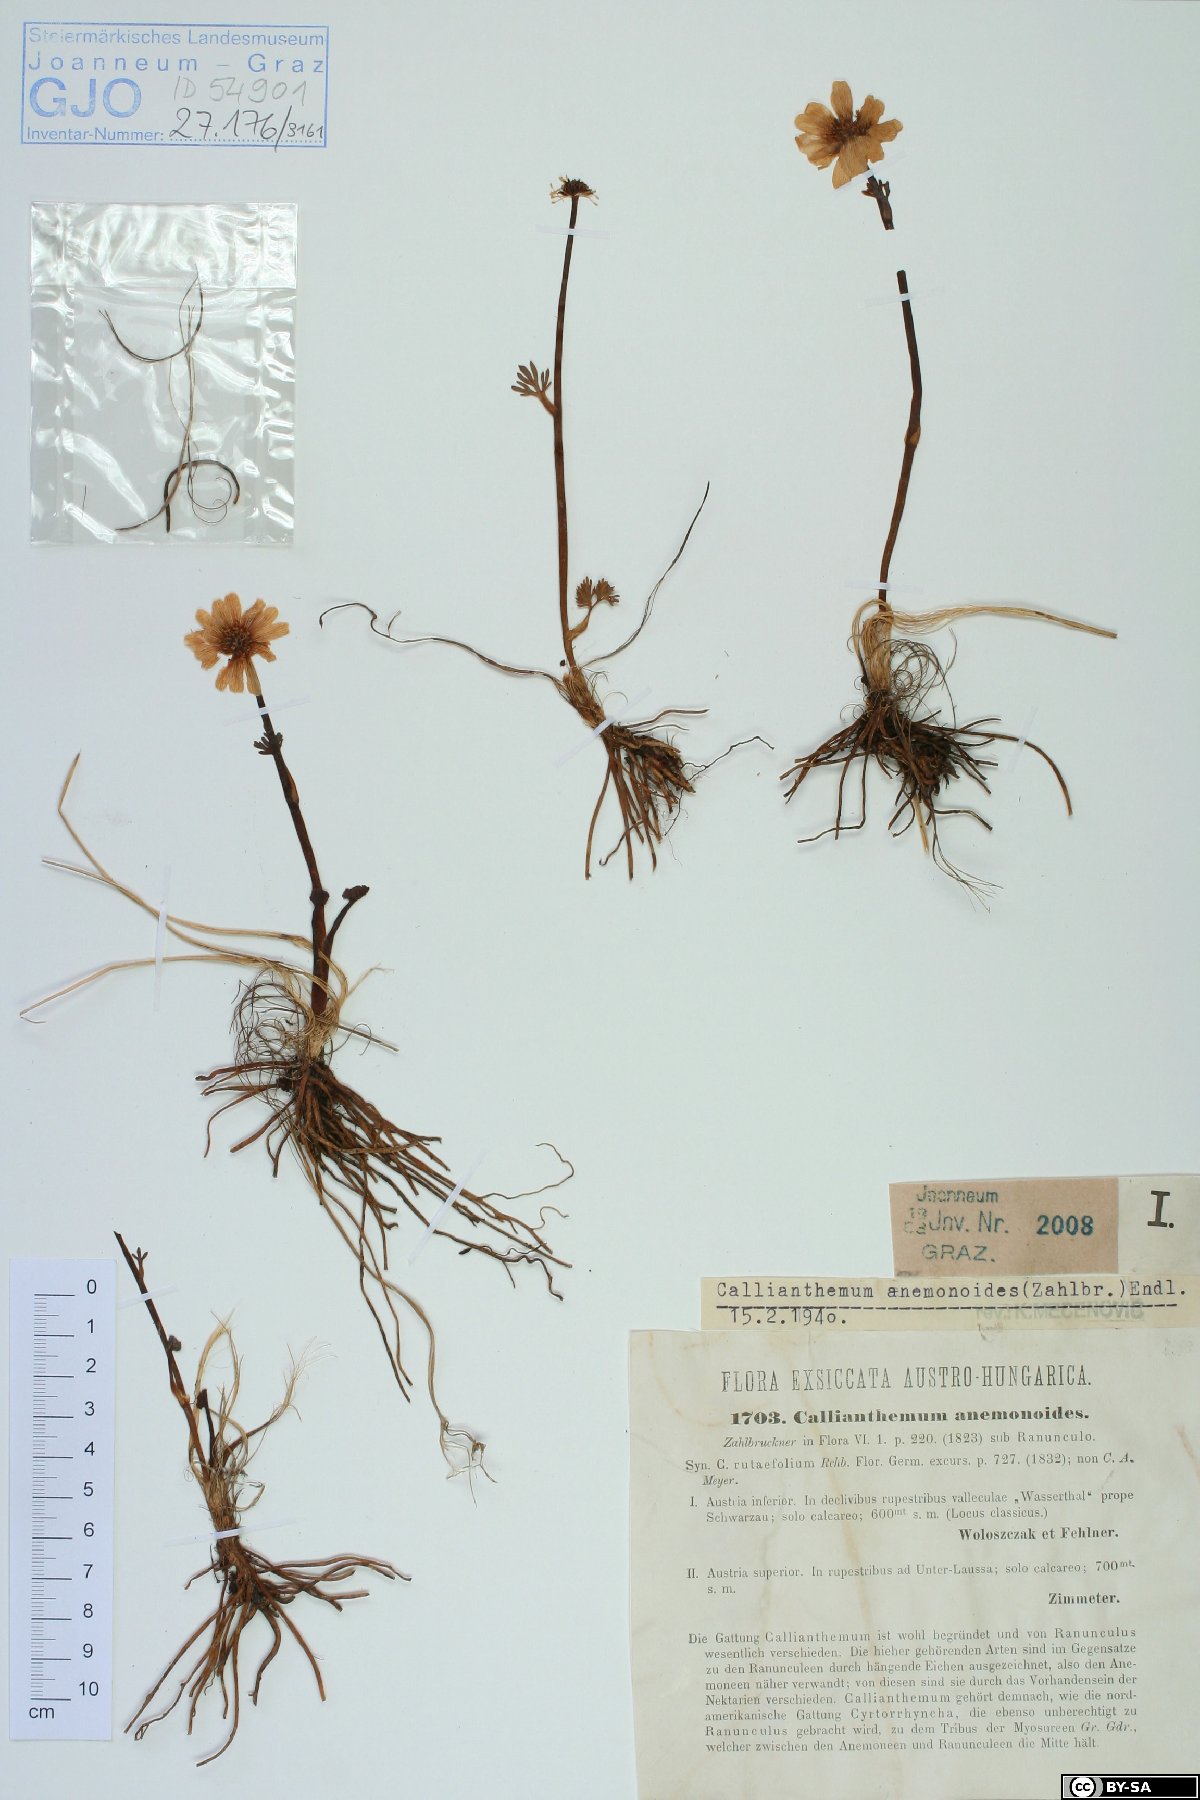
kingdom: Plantae
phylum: Tracheophyta
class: Magnoliopsida
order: Ranunculales
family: Ranunculaceae
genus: Callianthemum
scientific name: Callianthemum anemonoides
